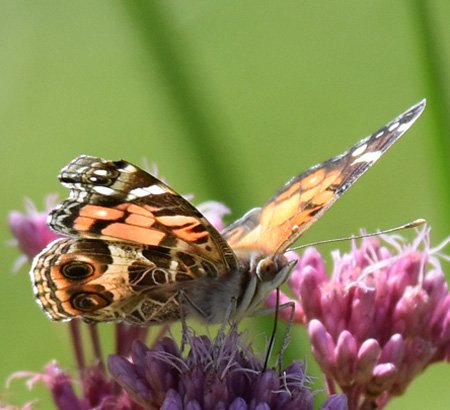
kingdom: Animalia
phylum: Arthropoda
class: Insecta
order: Lepidoptera
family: Nymphalidae
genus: Vanessa
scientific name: Vanessa virginiensis
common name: American Lady
